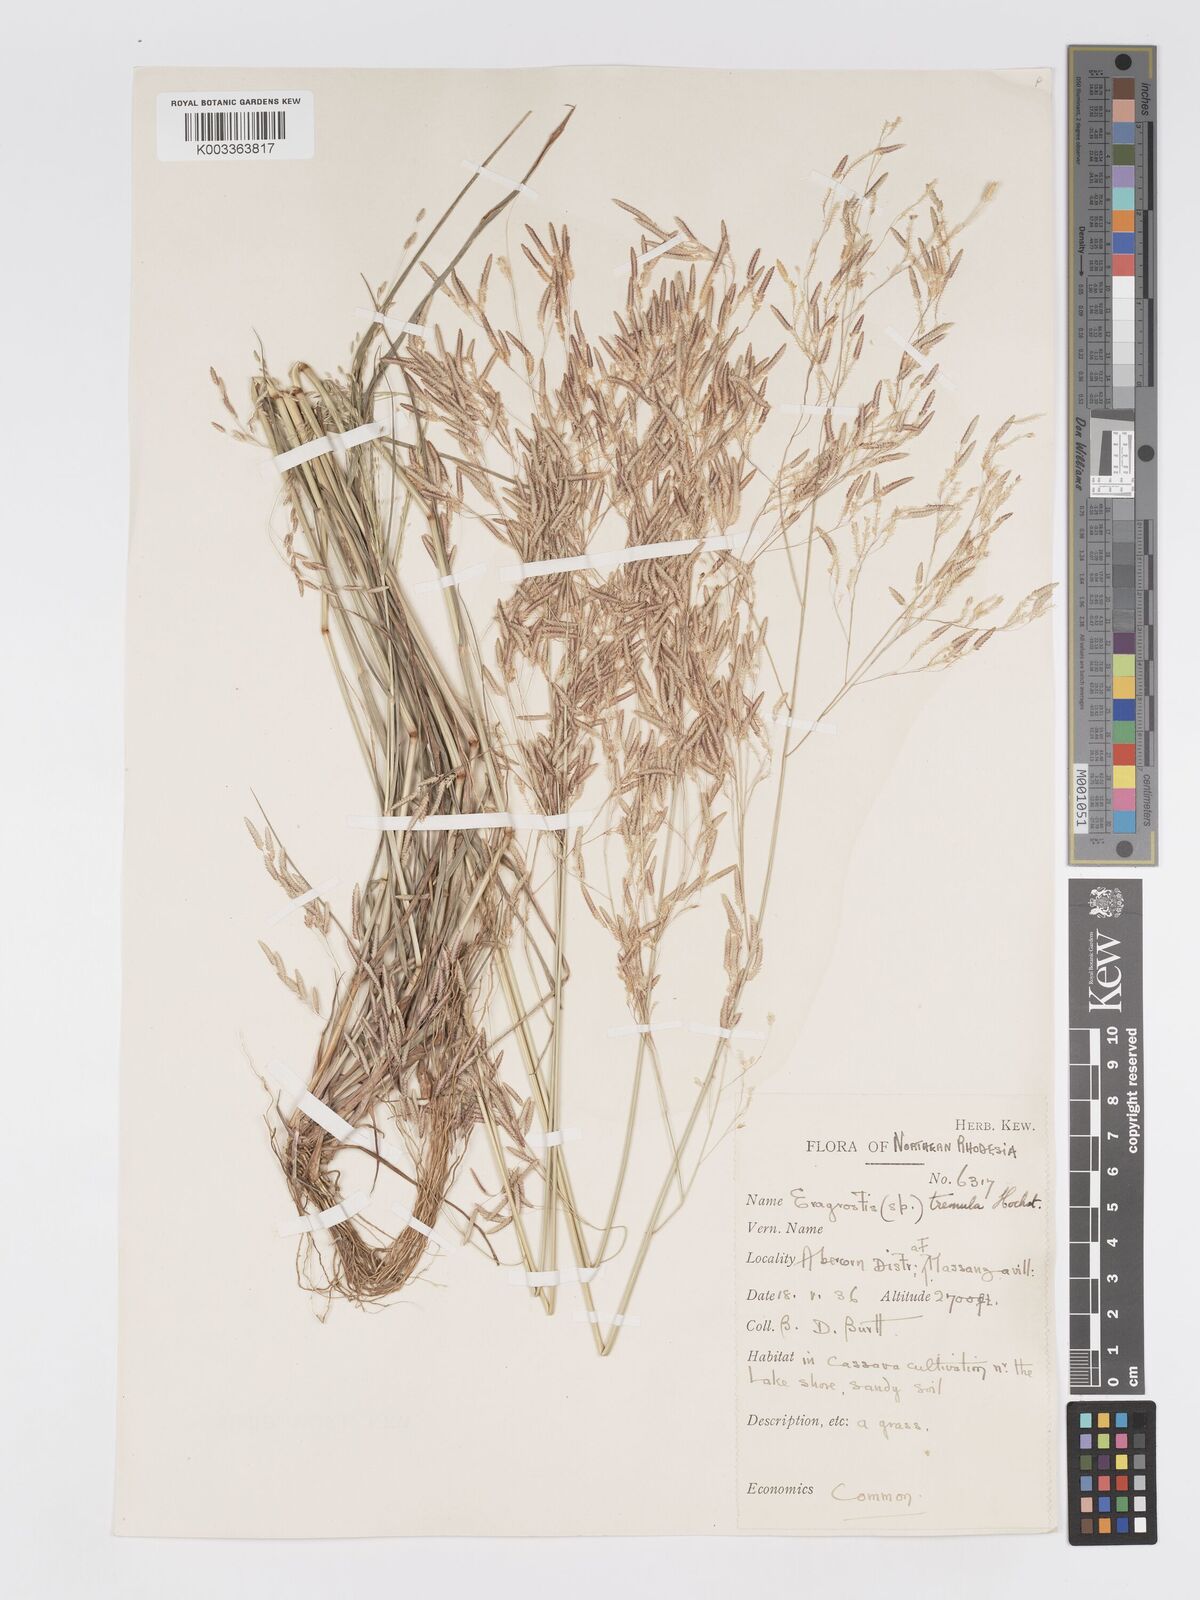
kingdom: Plantae
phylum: Tracheophyta
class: Liliopsida
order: Poales
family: Poaceae
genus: Eragrostis
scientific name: Eragrostis tremula
